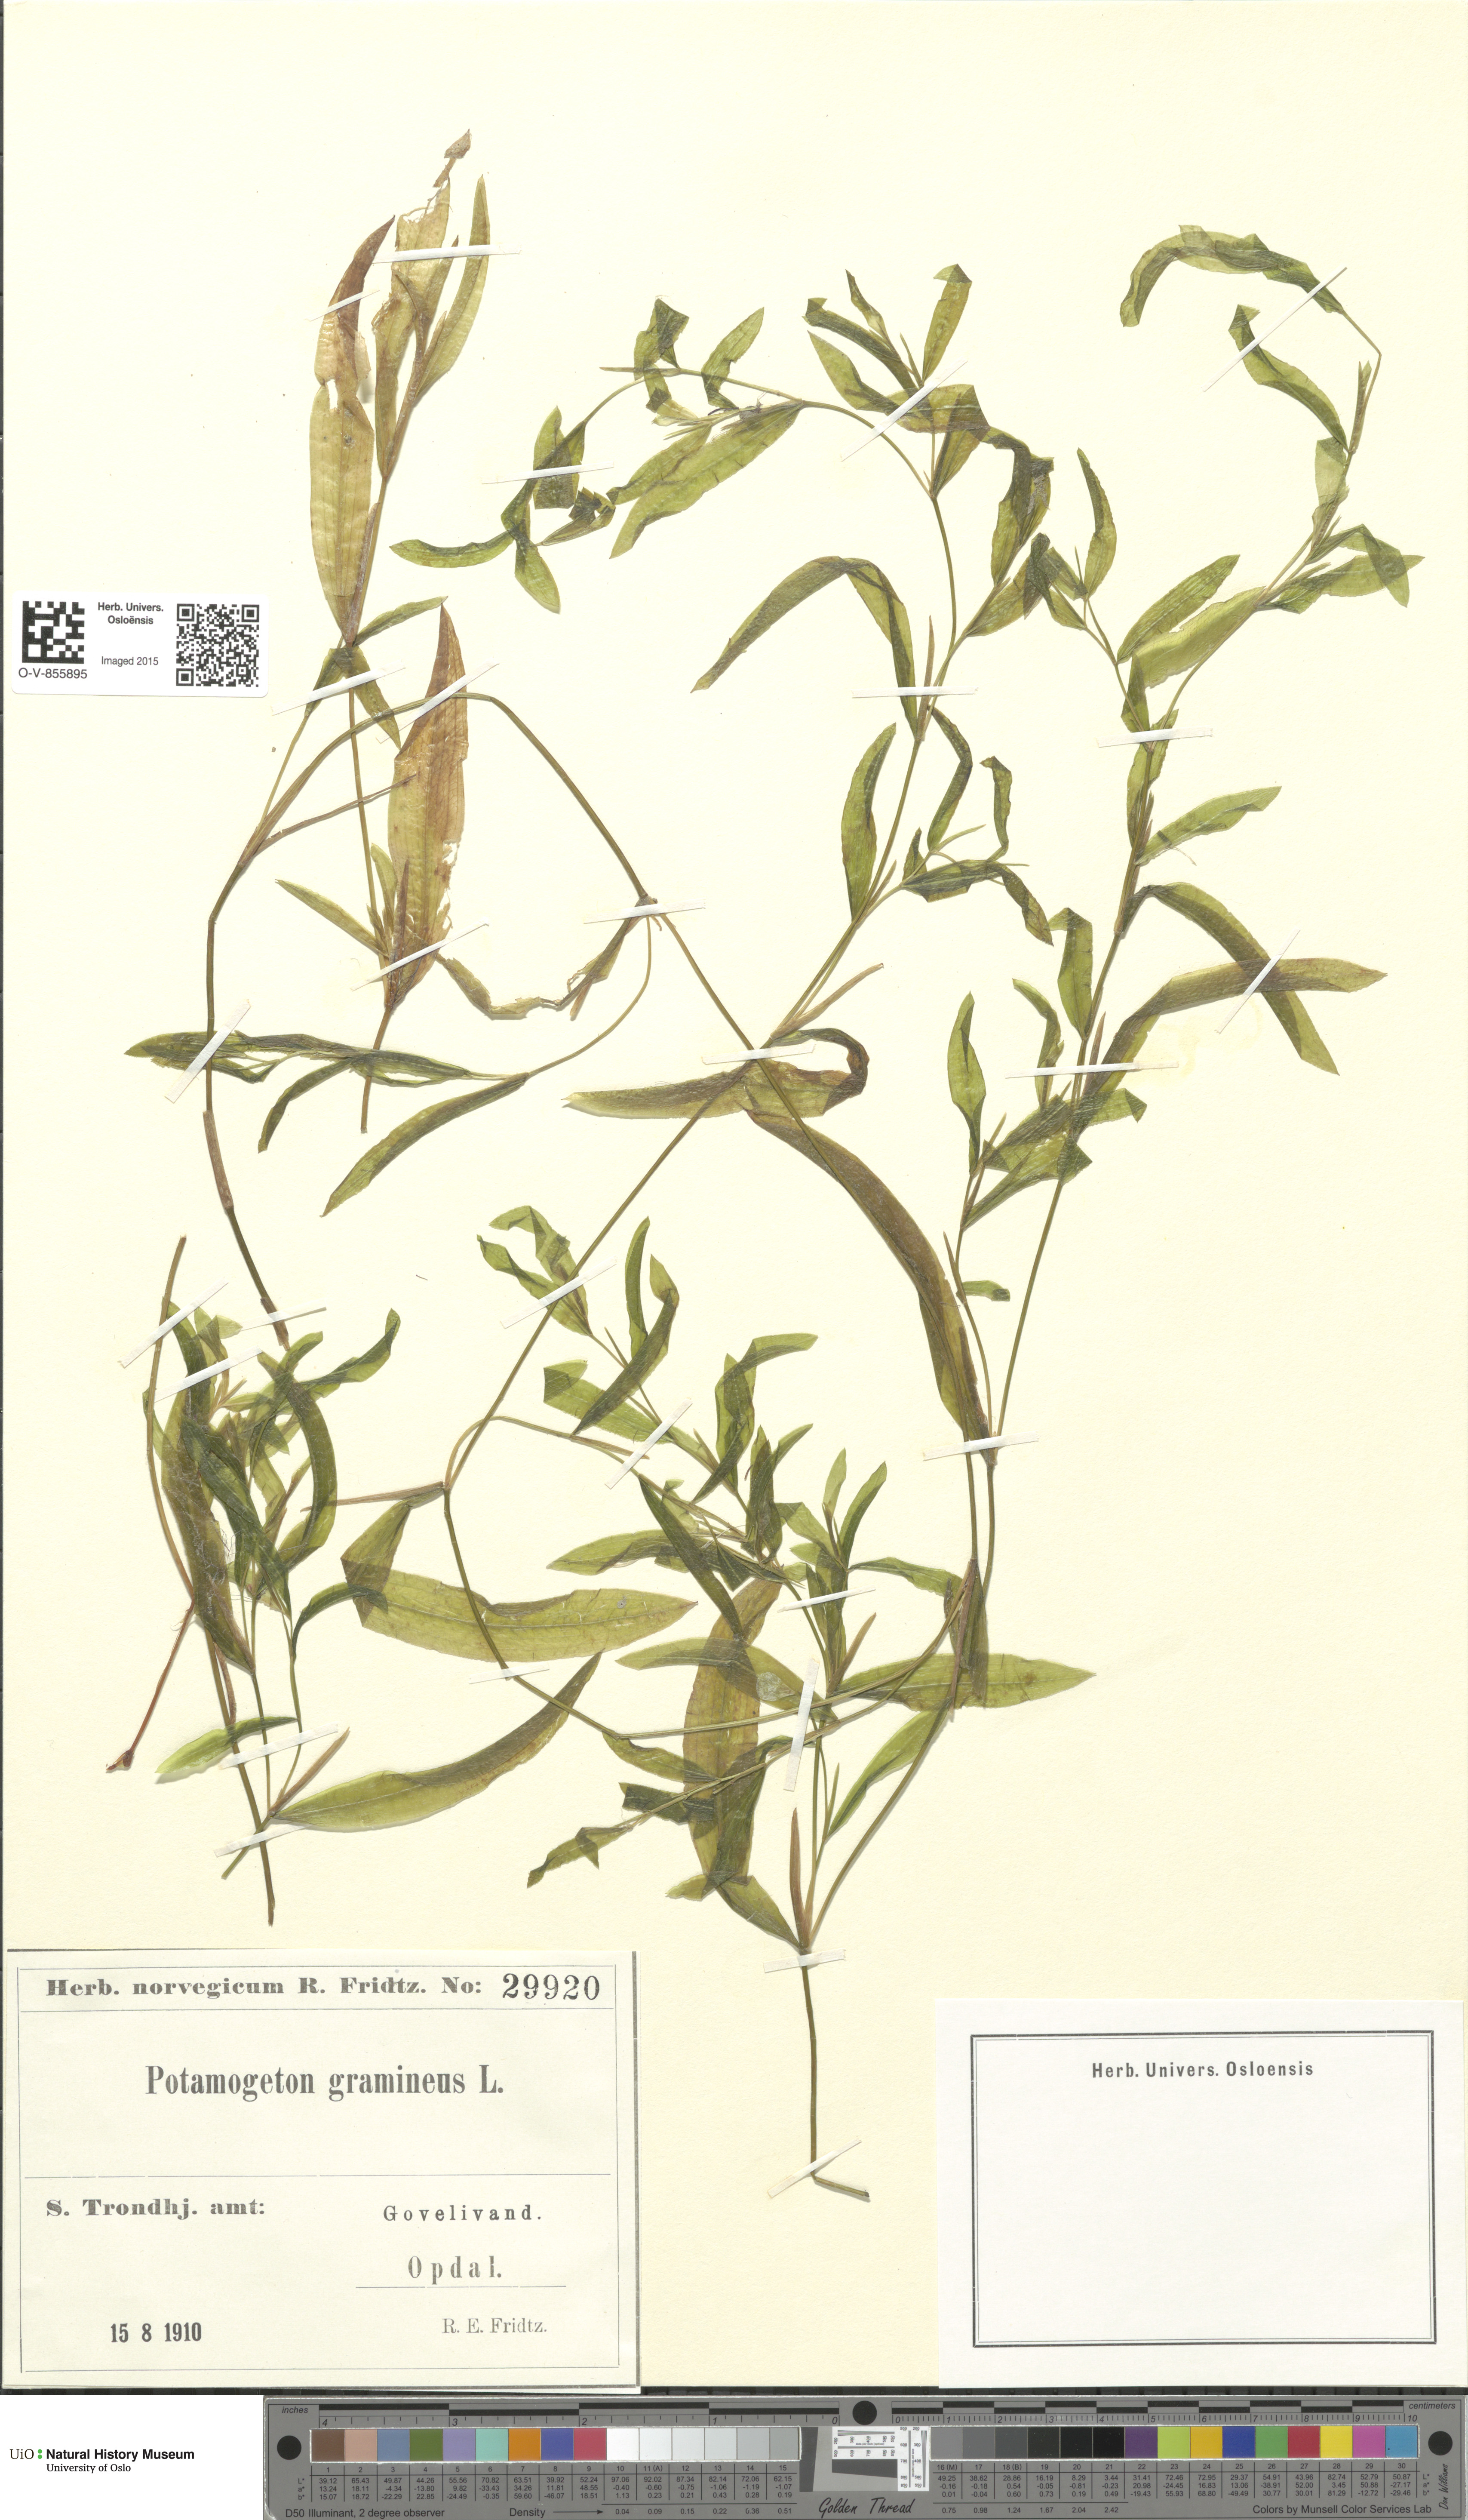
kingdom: Plantae
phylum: Tracheophyta
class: Liliopsida
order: Alismatales
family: Potamogetonaceae
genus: Potamogeton
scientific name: Potamogeton gramineus
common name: Various-leaved pondweed
